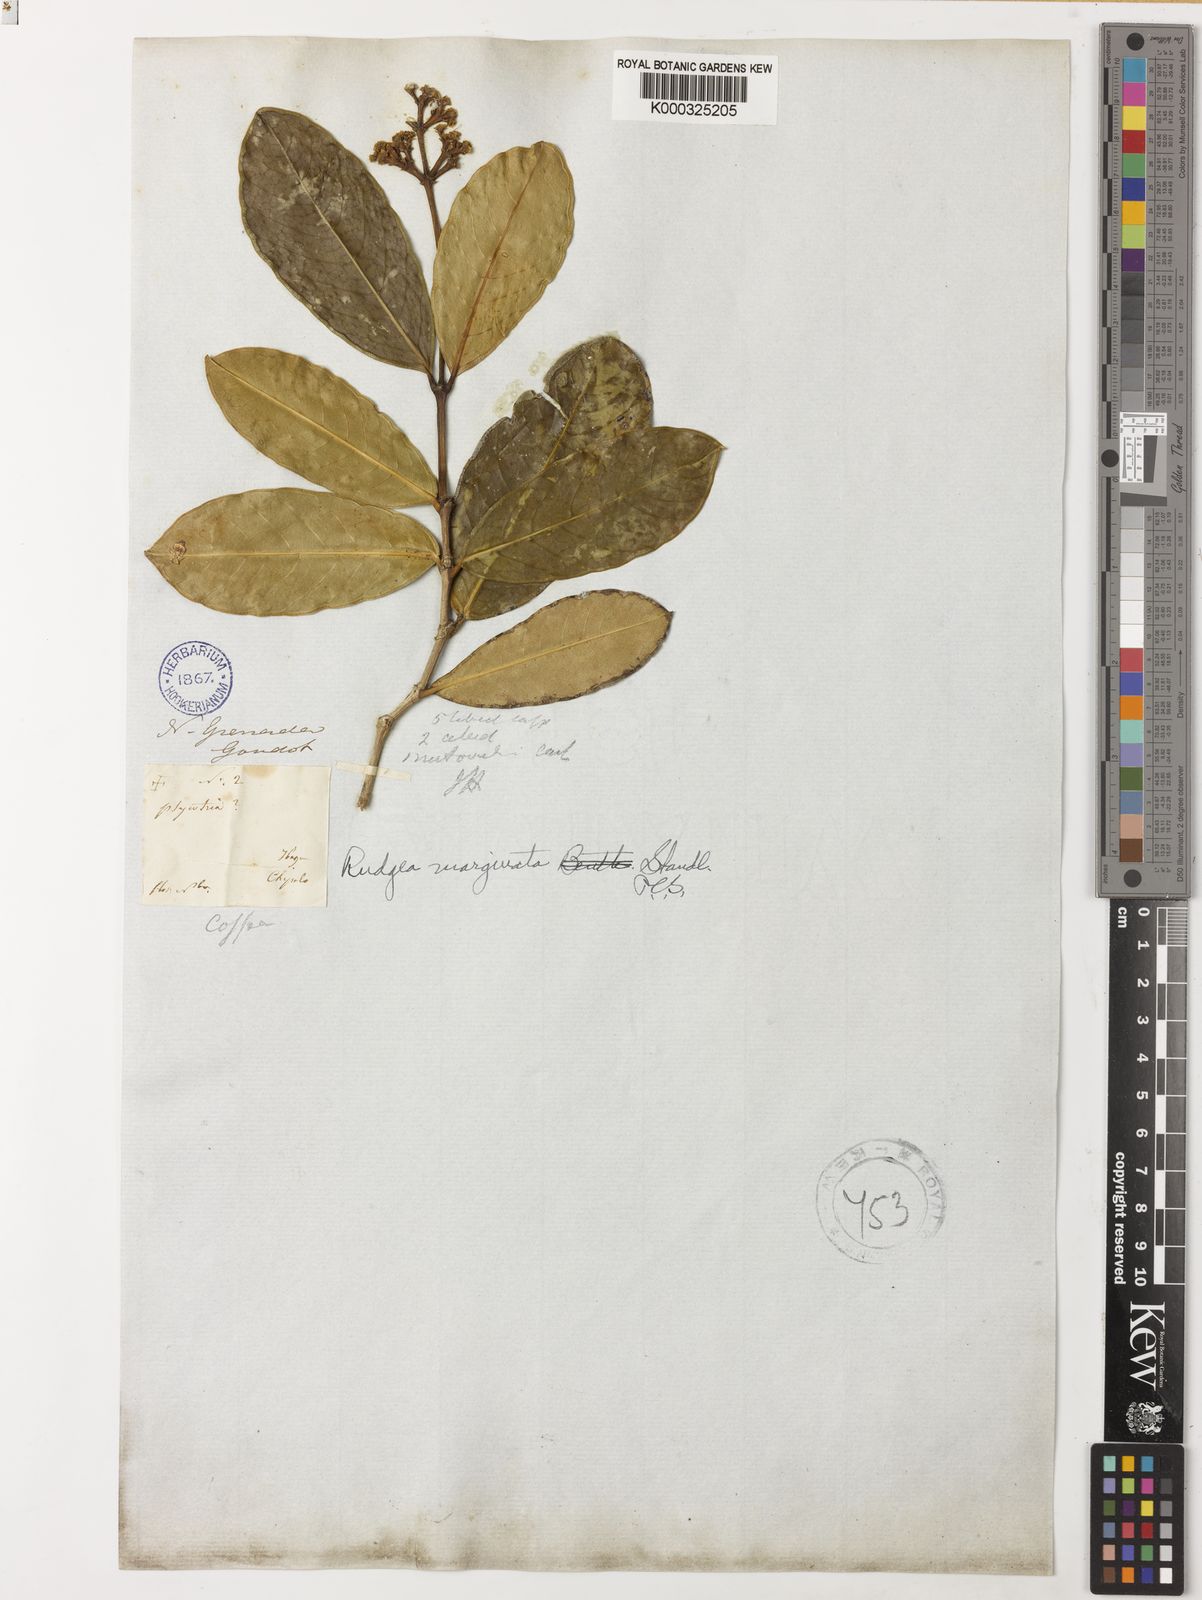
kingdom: Plantae
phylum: Tracheophyta
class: Magnoliopsida
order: Gentianales
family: Rubiaceae
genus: Rudgea
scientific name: Rudgea marginata
